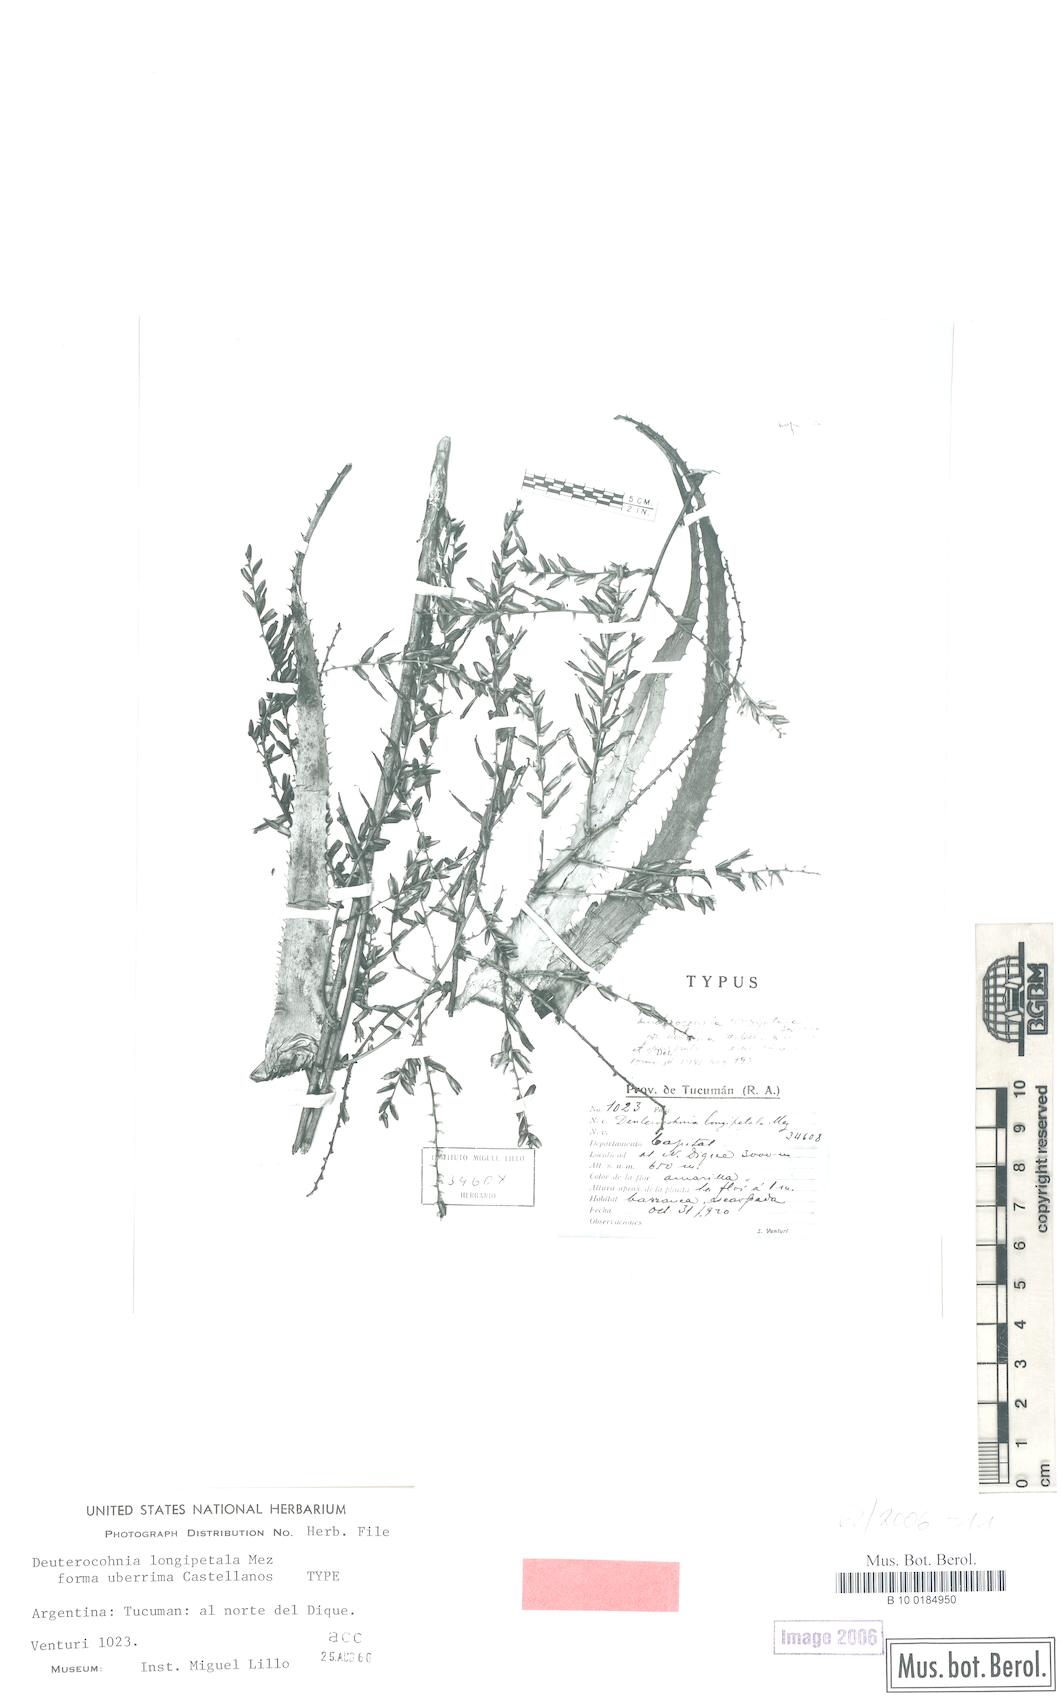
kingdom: Plantae
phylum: Tracheophyta
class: Liliopsida
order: Poales
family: Bromeliaceae
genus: Deuterocohnia
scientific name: Deuterocohnia longipetala
